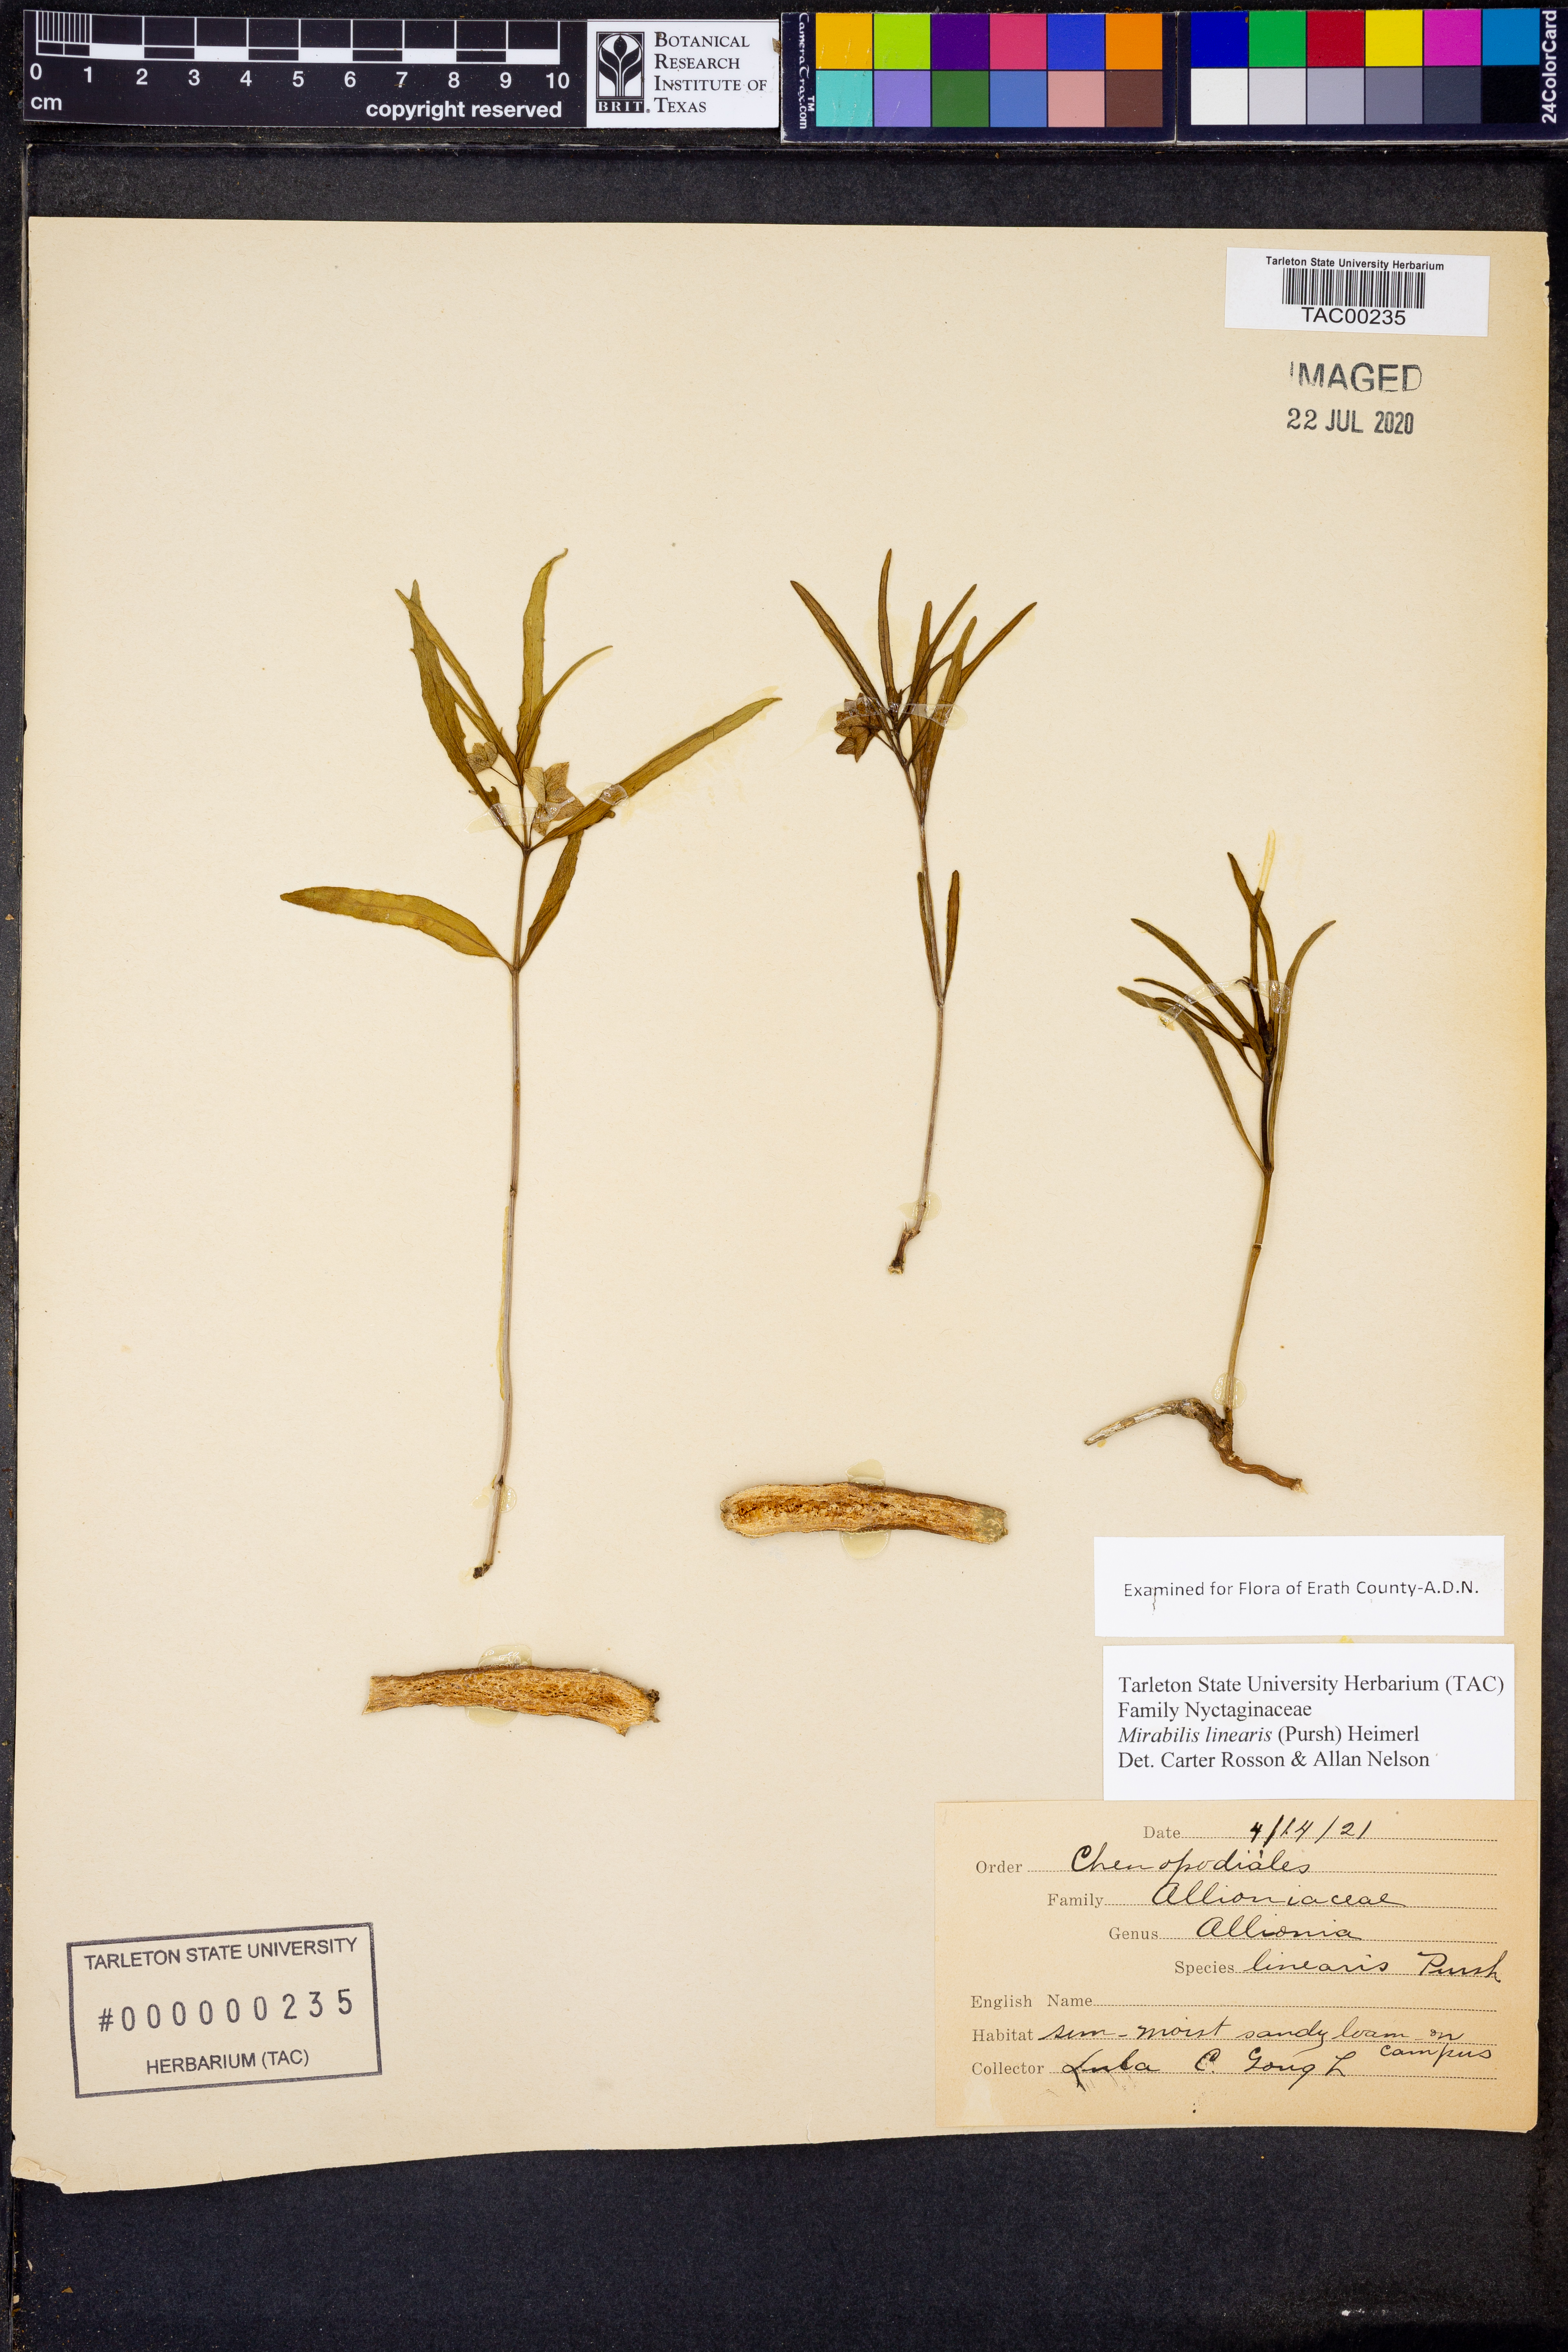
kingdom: Plantae
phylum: Tracheophyta
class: Magnoliopsida
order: Caryophyllales
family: Nyctaginaceae
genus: Mirabilis
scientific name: Mirabilis linearis
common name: Linear-leaved four-o'clock
